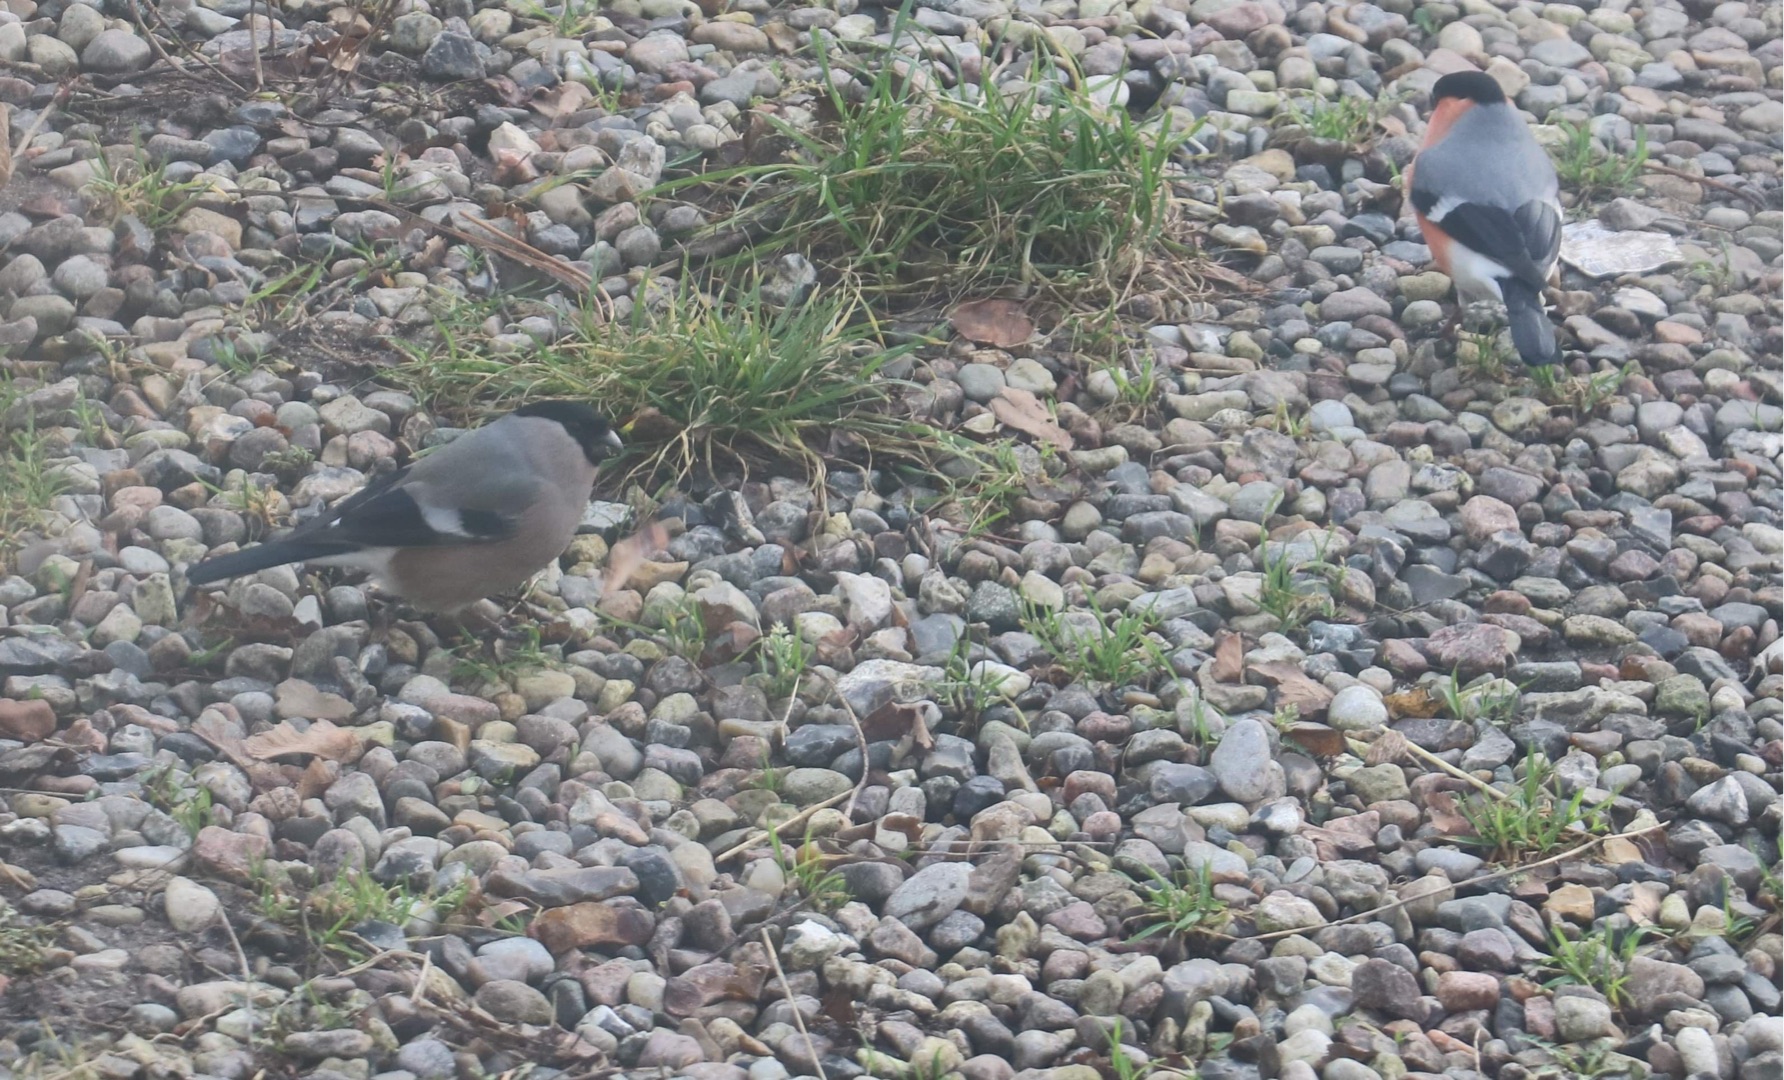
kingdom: Animalia
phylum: Chordata
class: Aves
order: Passeriformes
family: Fringillidae
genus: Pyrrhula
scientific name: Pyrrhula pyrrhula
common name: Dompap
